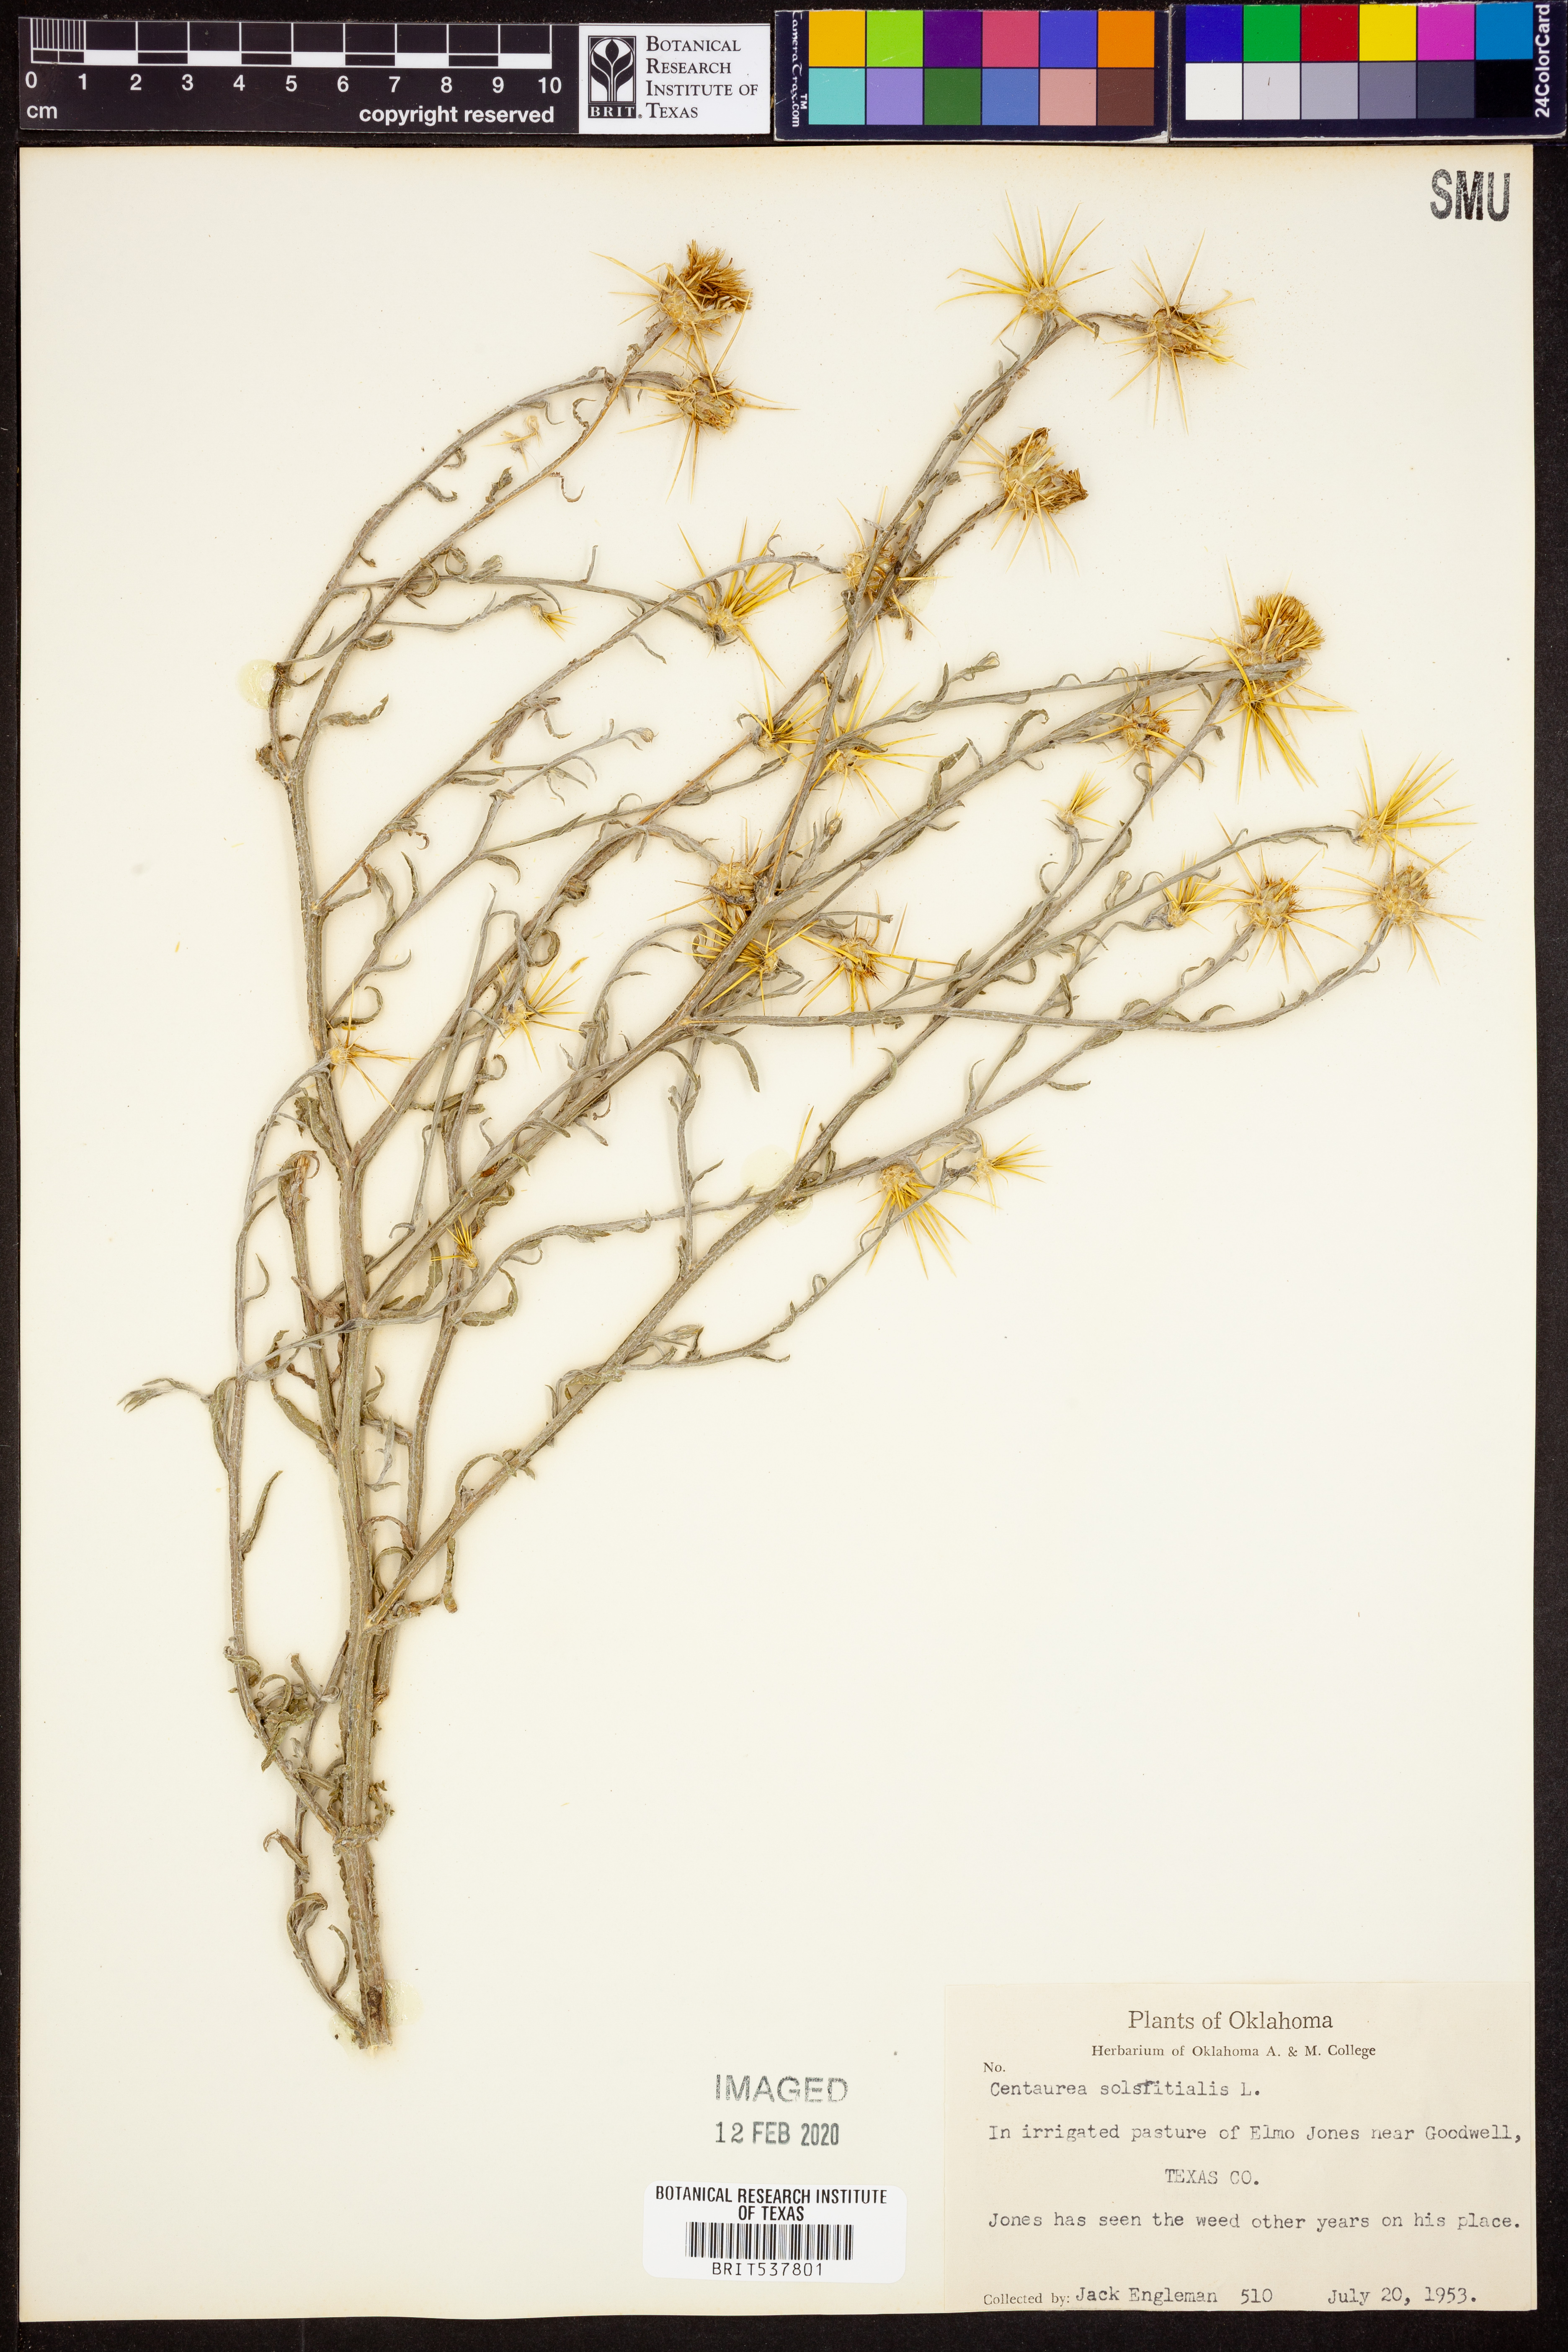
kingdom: Plantae
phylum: Tracheophyta
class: Magnoliopsida
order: Asterales
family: Asteraceae
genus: Centaurea
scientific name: Centaurea solstitialis
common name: Yellow star-thistle
